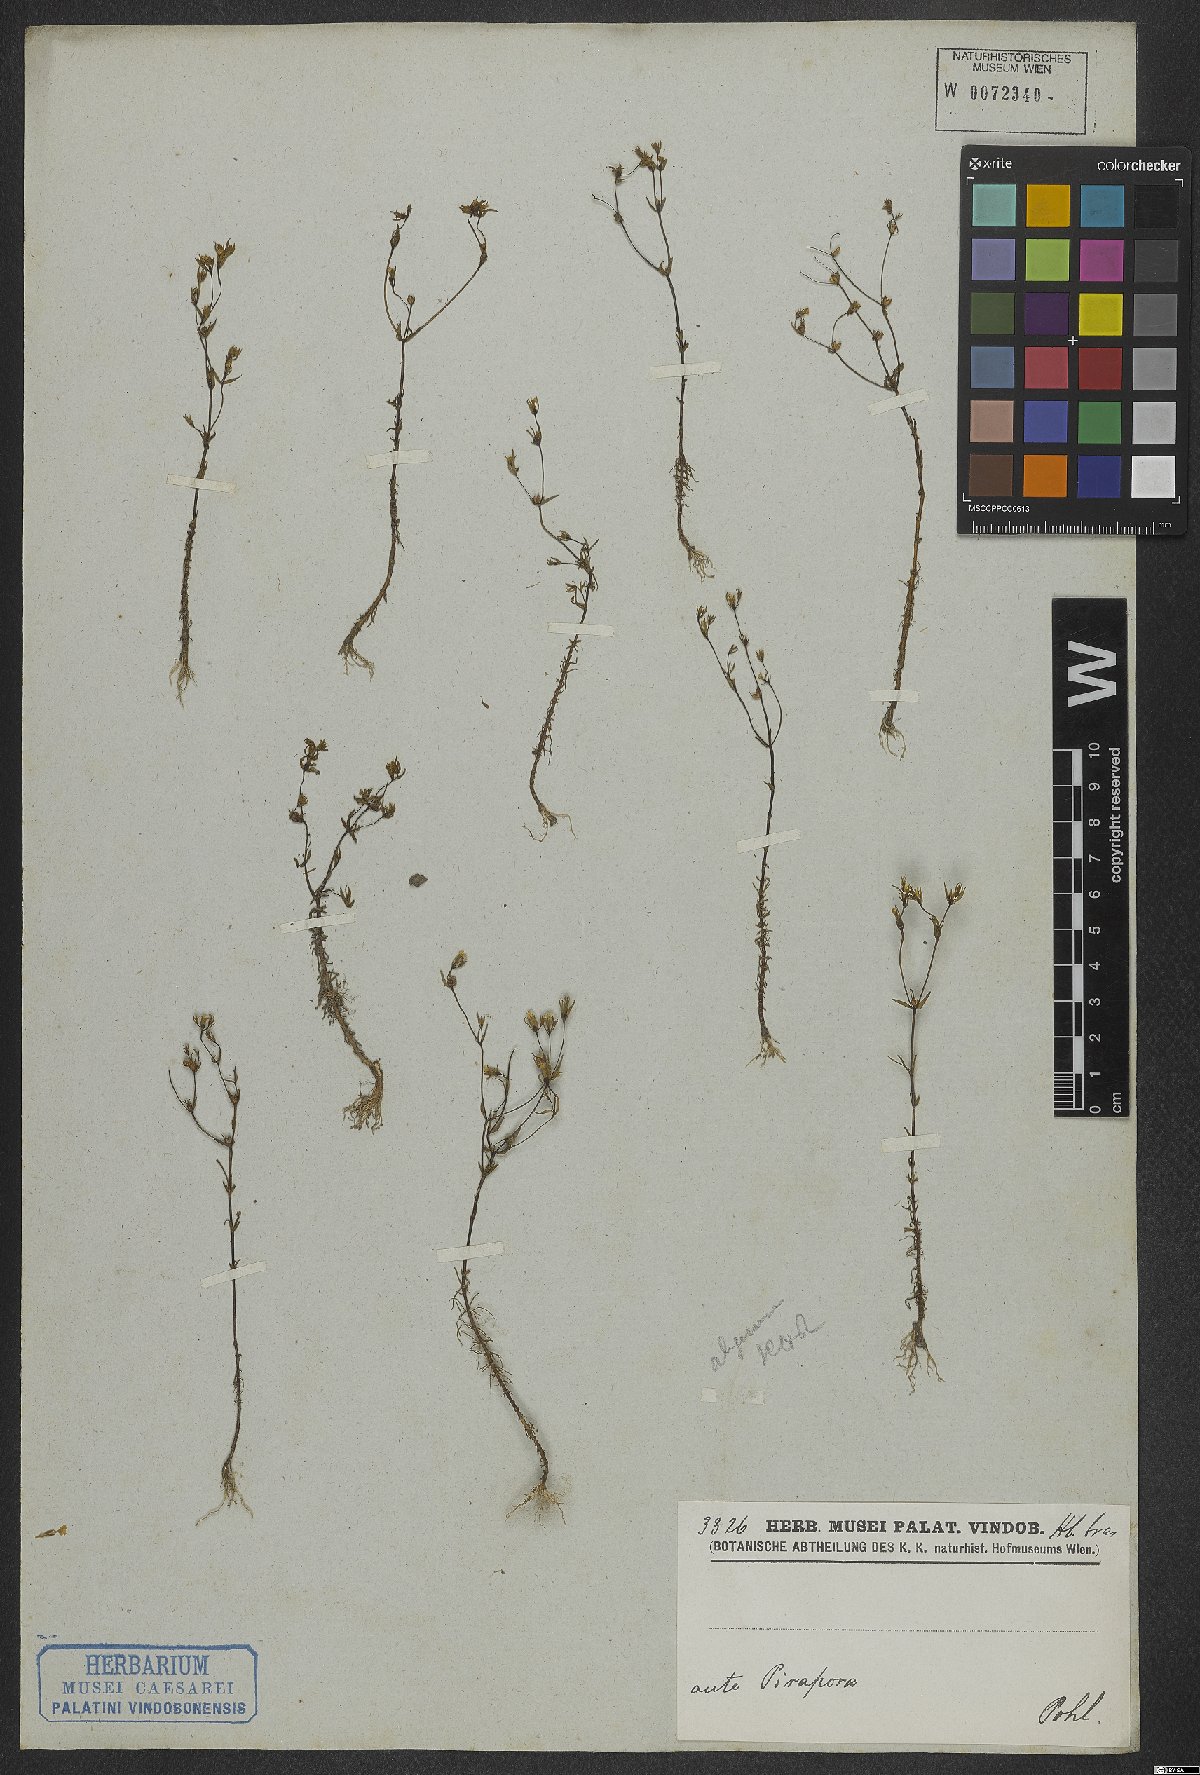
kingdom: Plantae
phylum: Tracheophyta
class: Magnoliopsida
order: Gentianales
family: Rubiaceae
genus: Limnosipanea
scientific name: Limnosipanea
